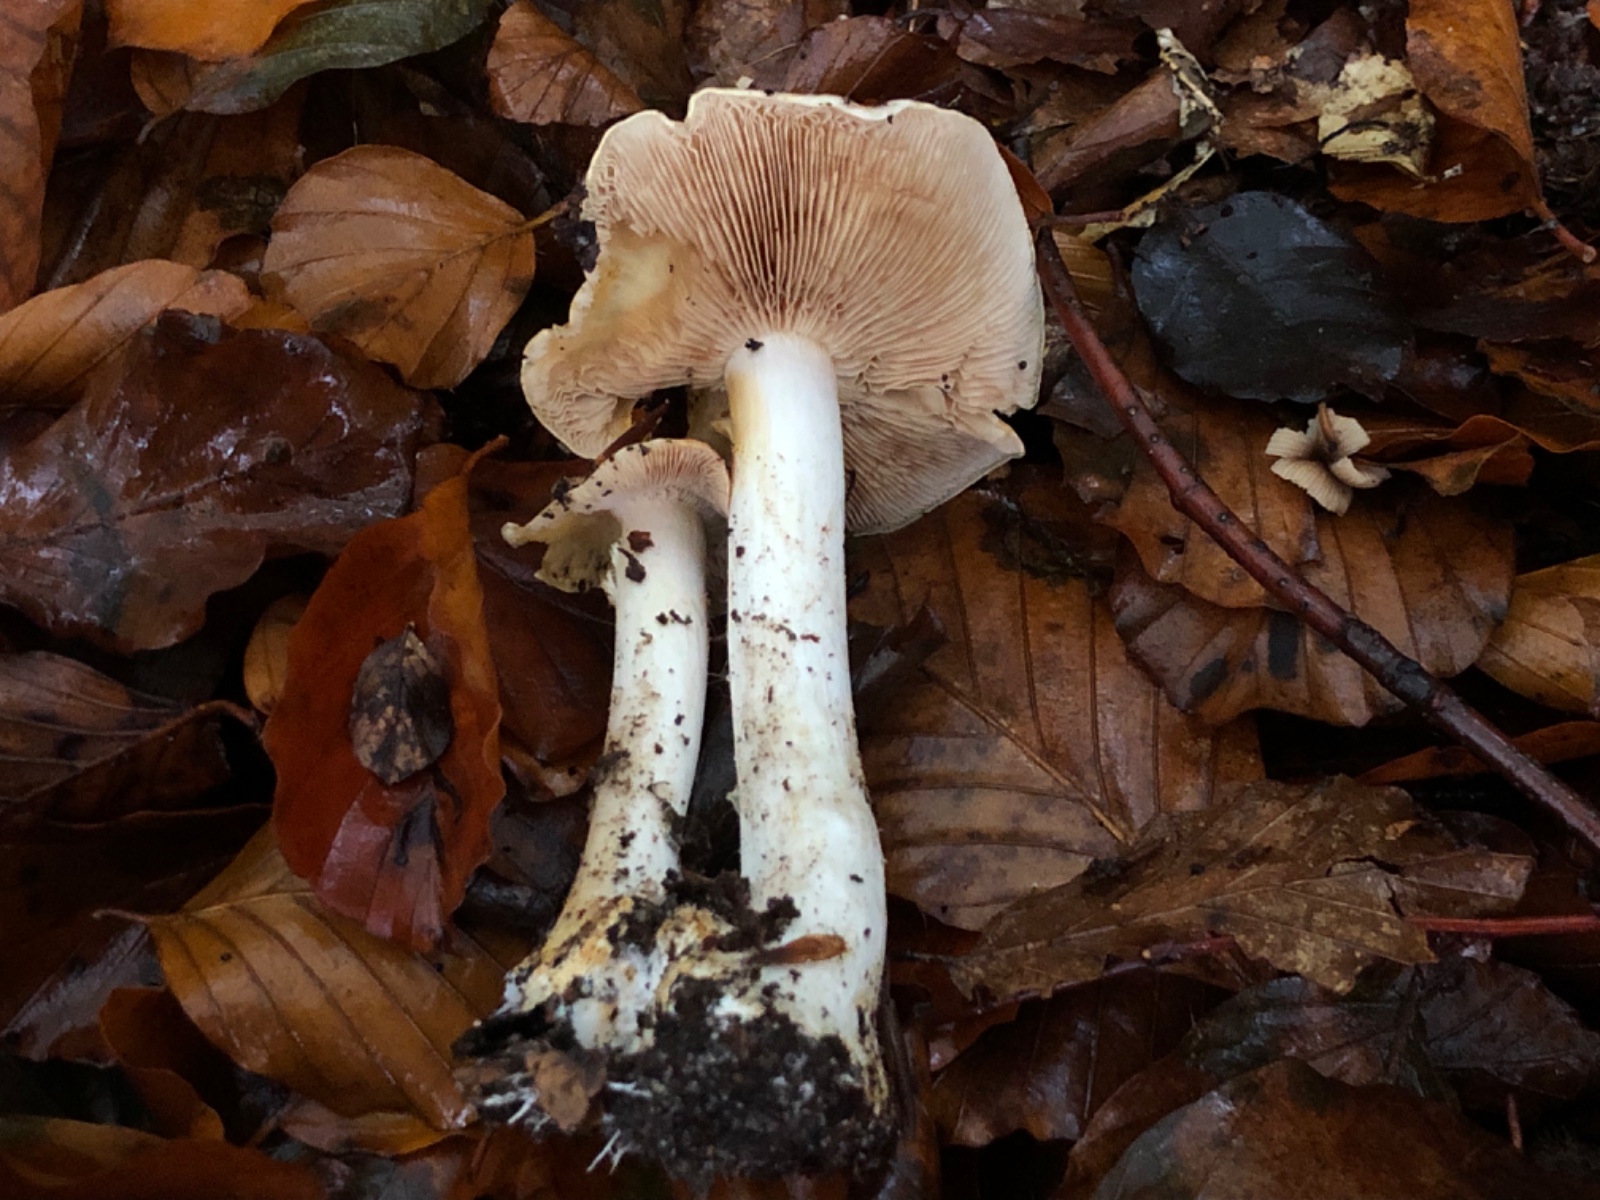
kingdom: Fungi
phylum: Basidiomycota
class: Agaricomycetes
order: Agaricales
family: Cortinariaceae
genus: Phlegmacium
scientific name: Phlegmacium xantho-ochraceum
